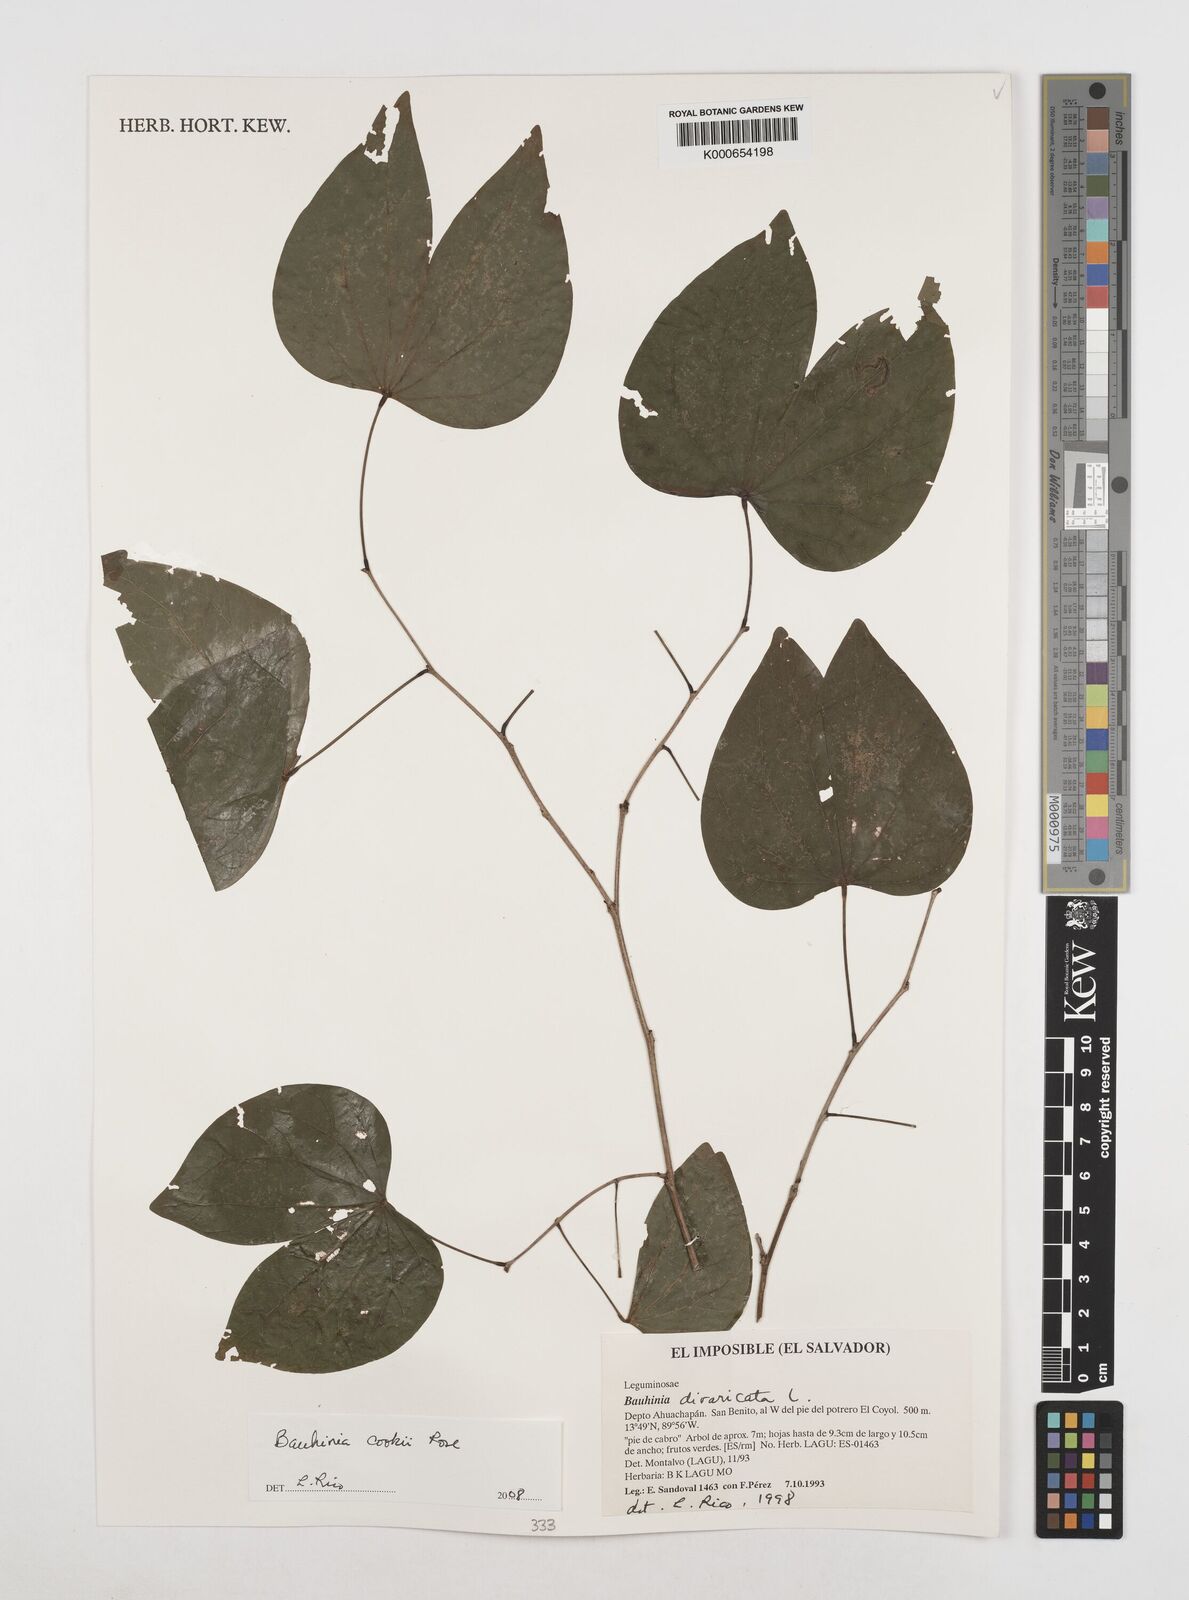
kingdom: Plantae
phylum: Tracheophyta
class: Magnoliopsida
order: Fabales
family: Fabaceae
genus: Bauhinia
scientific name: Bauhinia cookii
